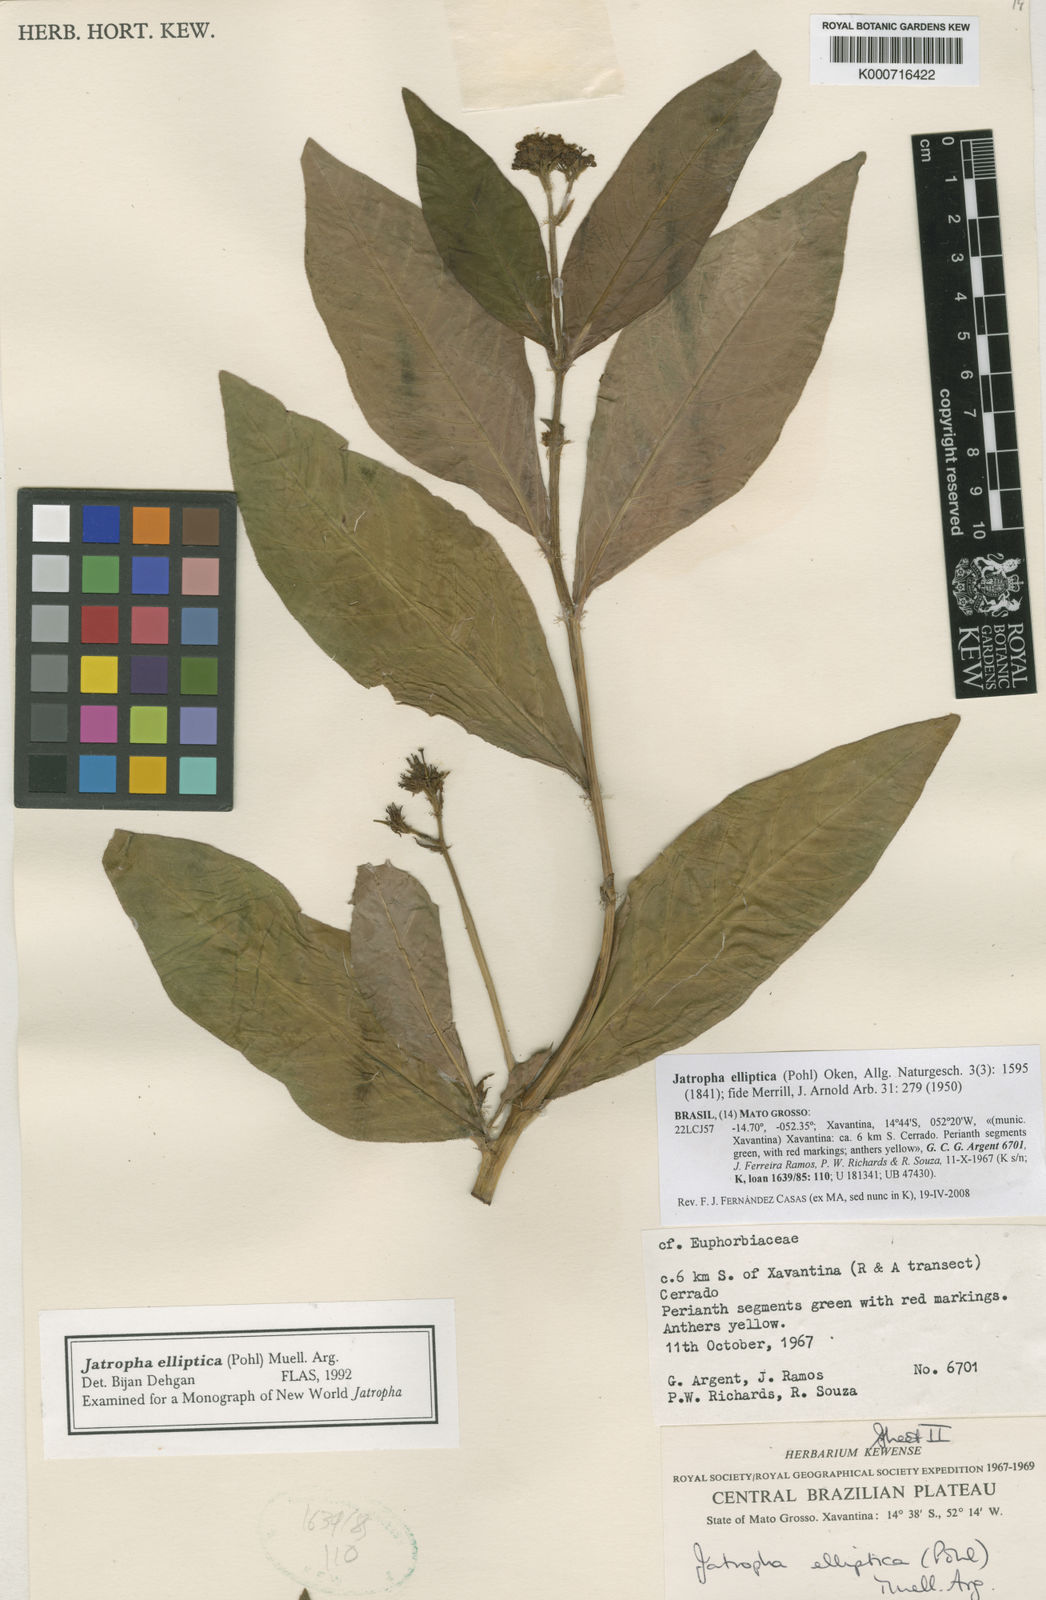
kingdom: Plantae
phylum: Tracheophyta
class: Magnoliopsida
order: Malpighiales
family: Euphorbiaceae
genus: Jatropha
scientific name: Jatropha elliptica
